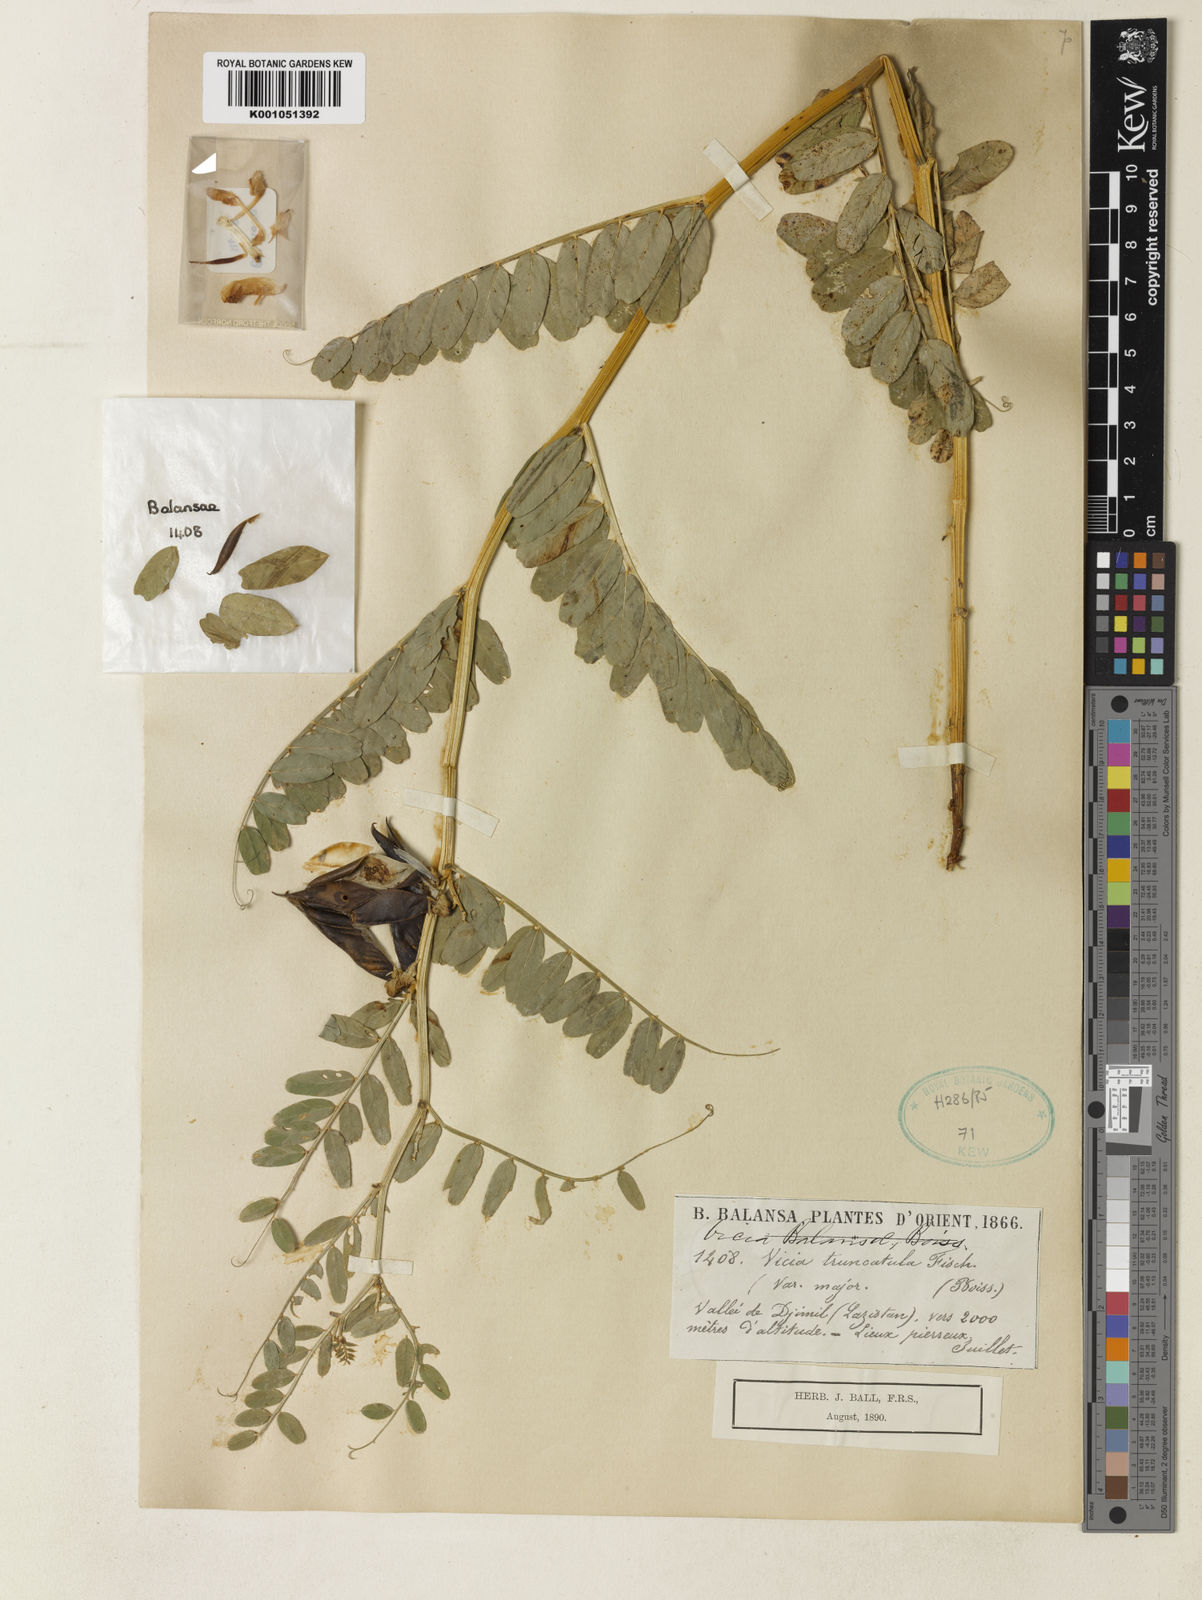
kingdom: Plantae
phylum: Tracheophyta
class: Magnoliopsida
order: Fabales
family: Fabaceae
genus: Vicia
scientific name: Vicia balansae
